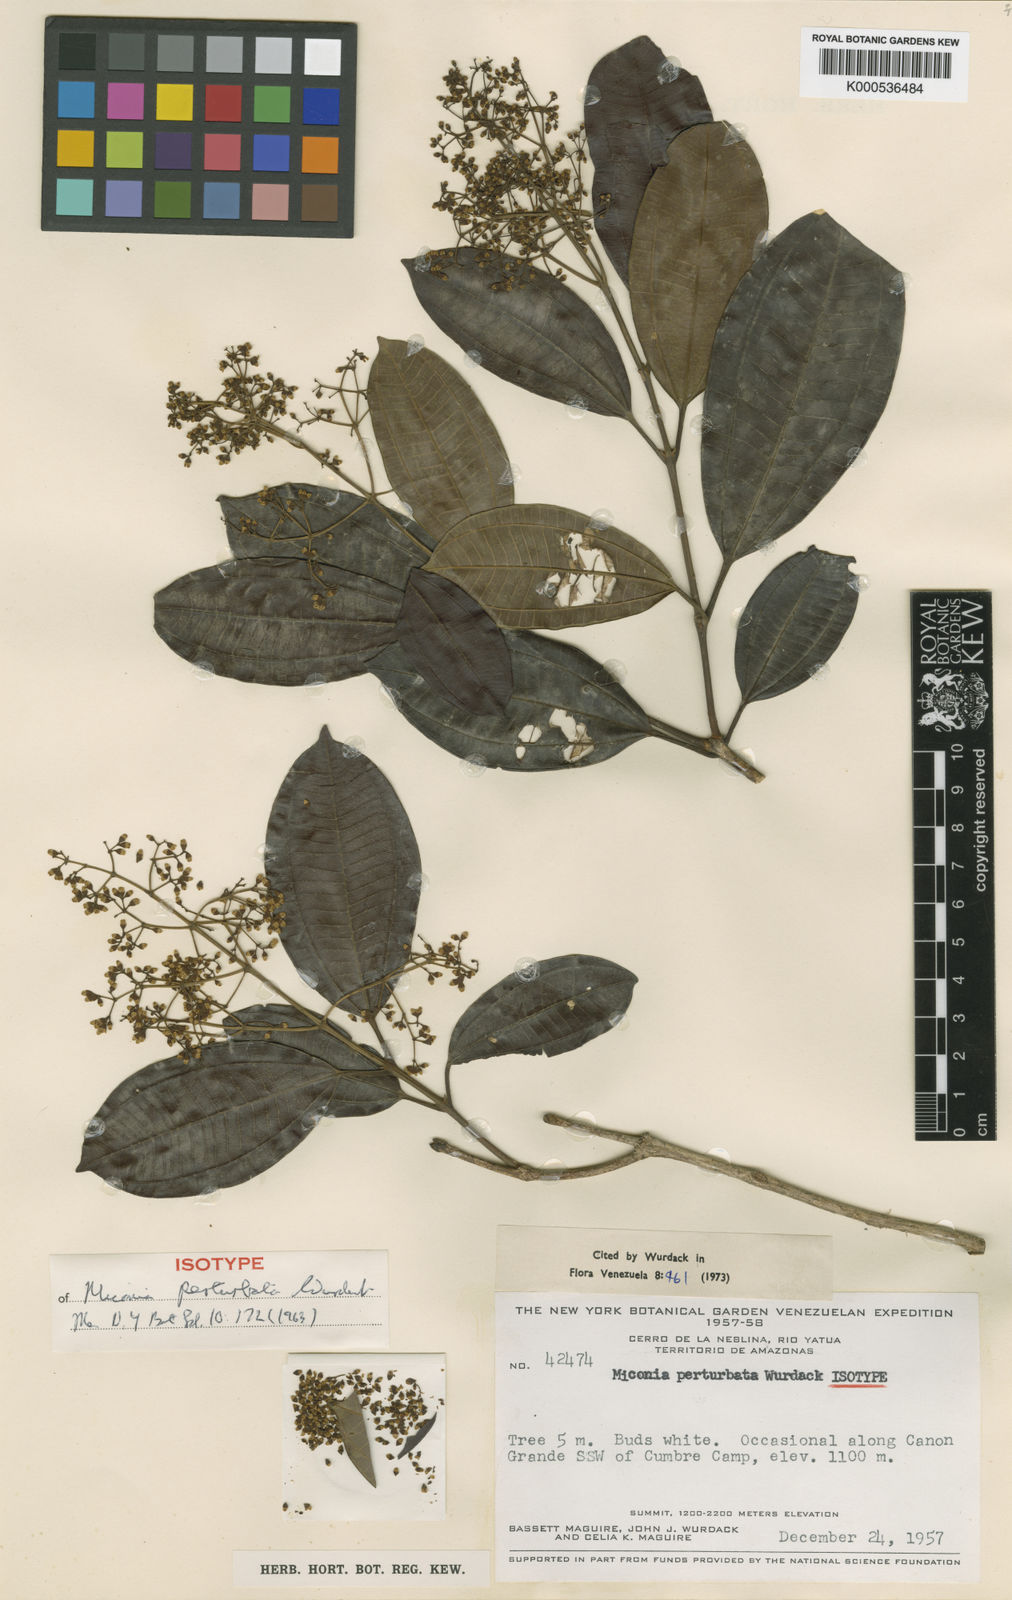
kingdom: Plantae
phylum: Tracheophyta
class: Magnoliopsida
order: Myrtales
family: Melastomataceae
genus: Miconia
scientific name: Miconia perturbata
